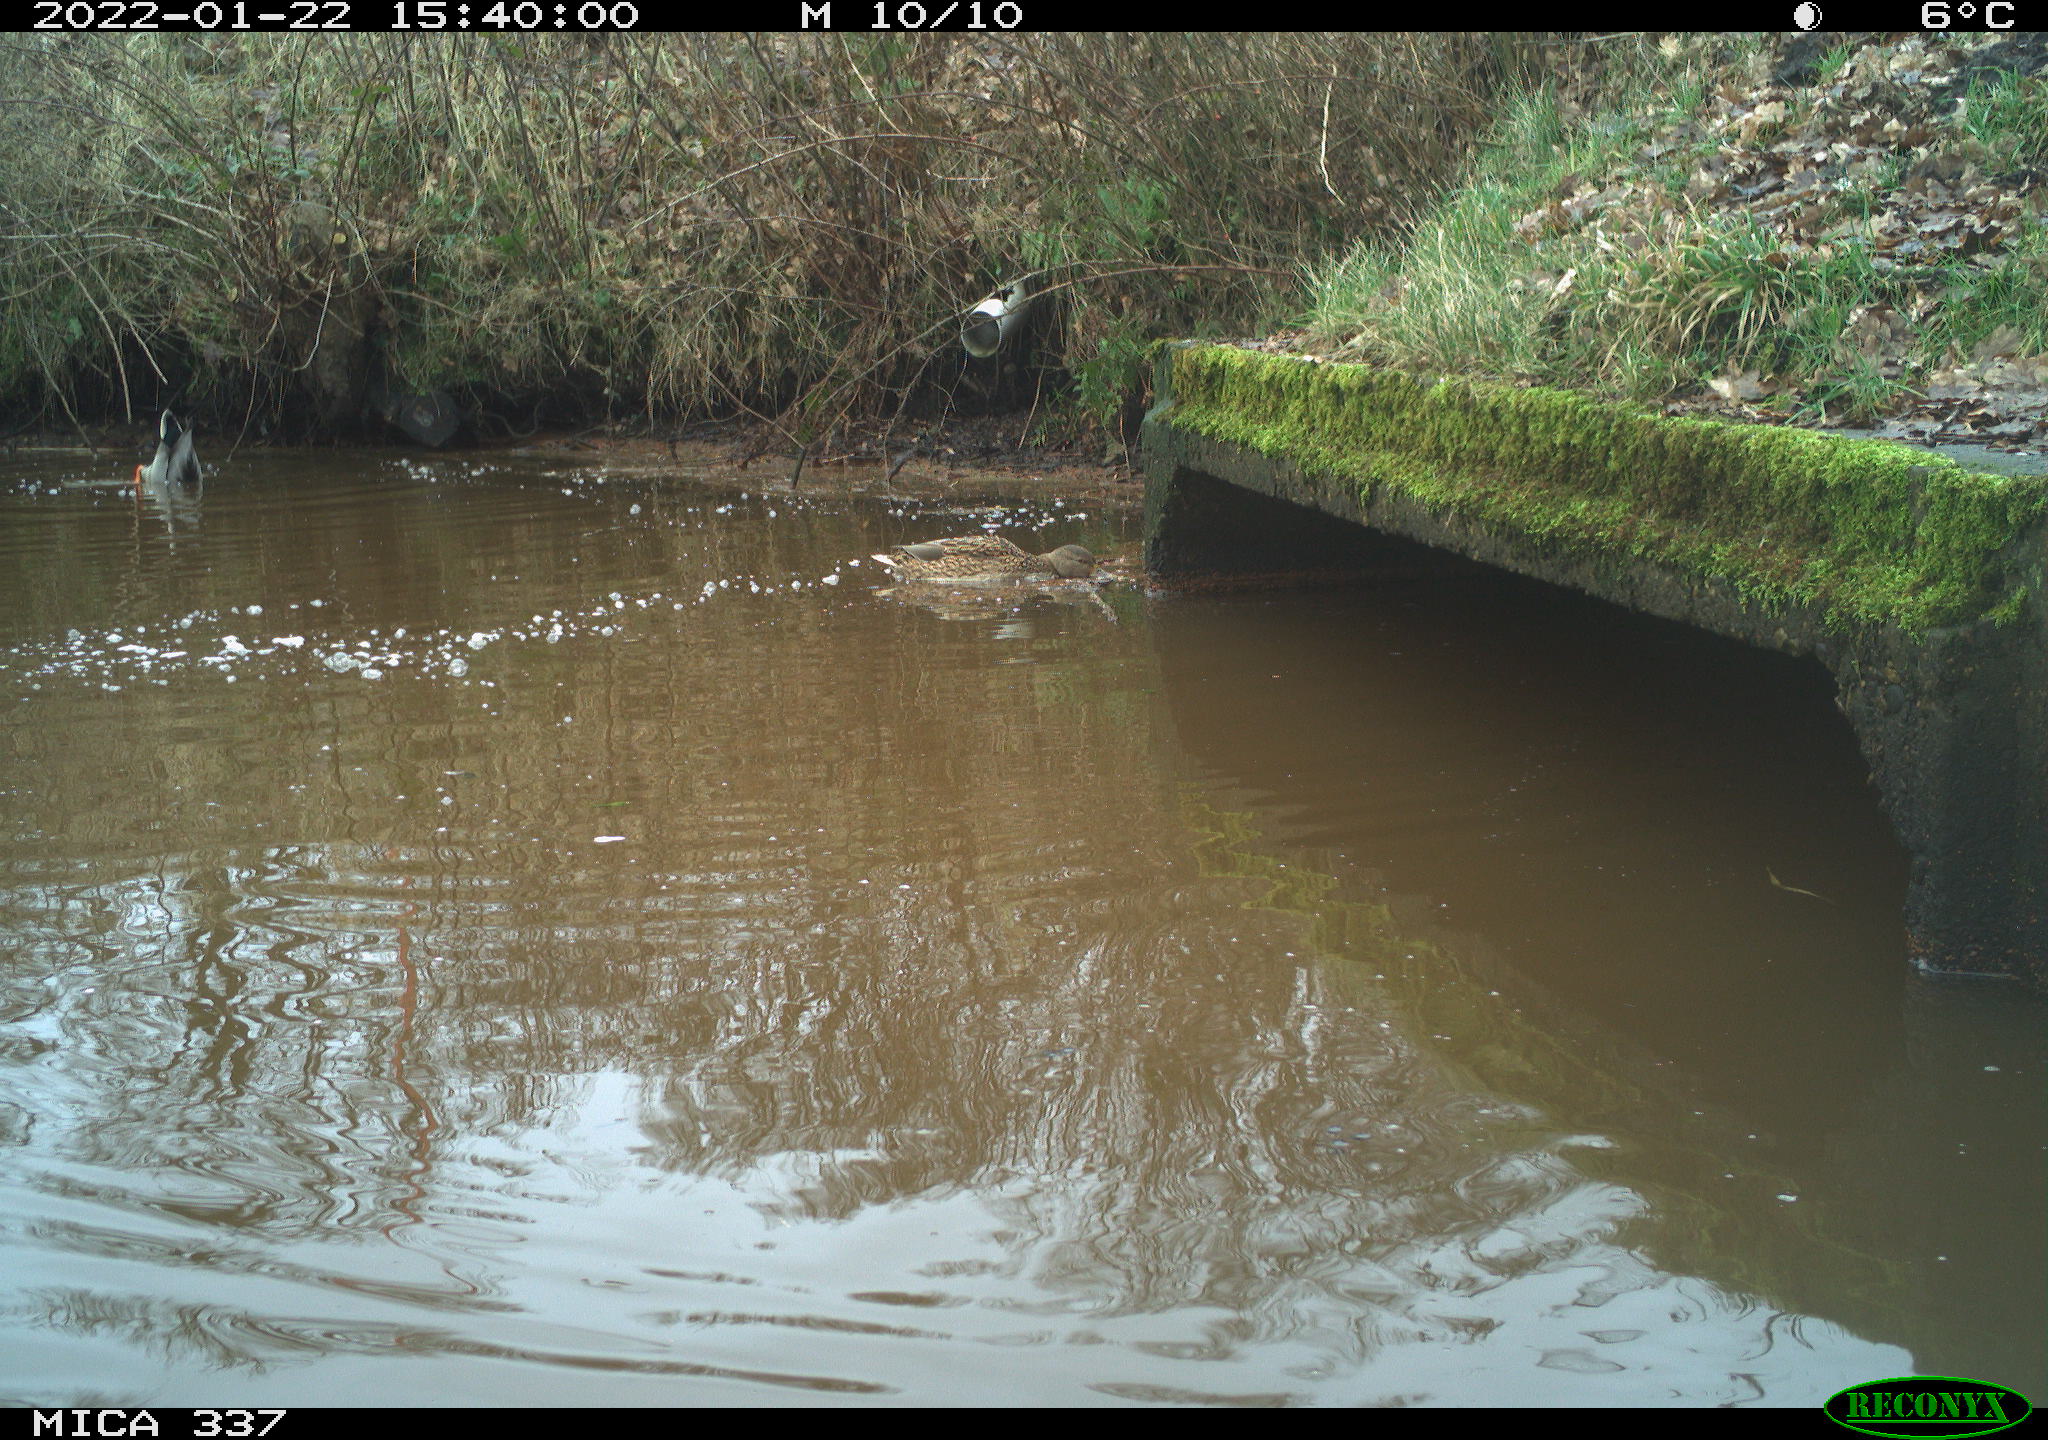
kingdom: Animalia
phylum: Chordata
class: Aves
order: Anseriformes
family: Anatidae
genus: Anas
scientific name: Anas platyrhynchos
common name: Mallard
